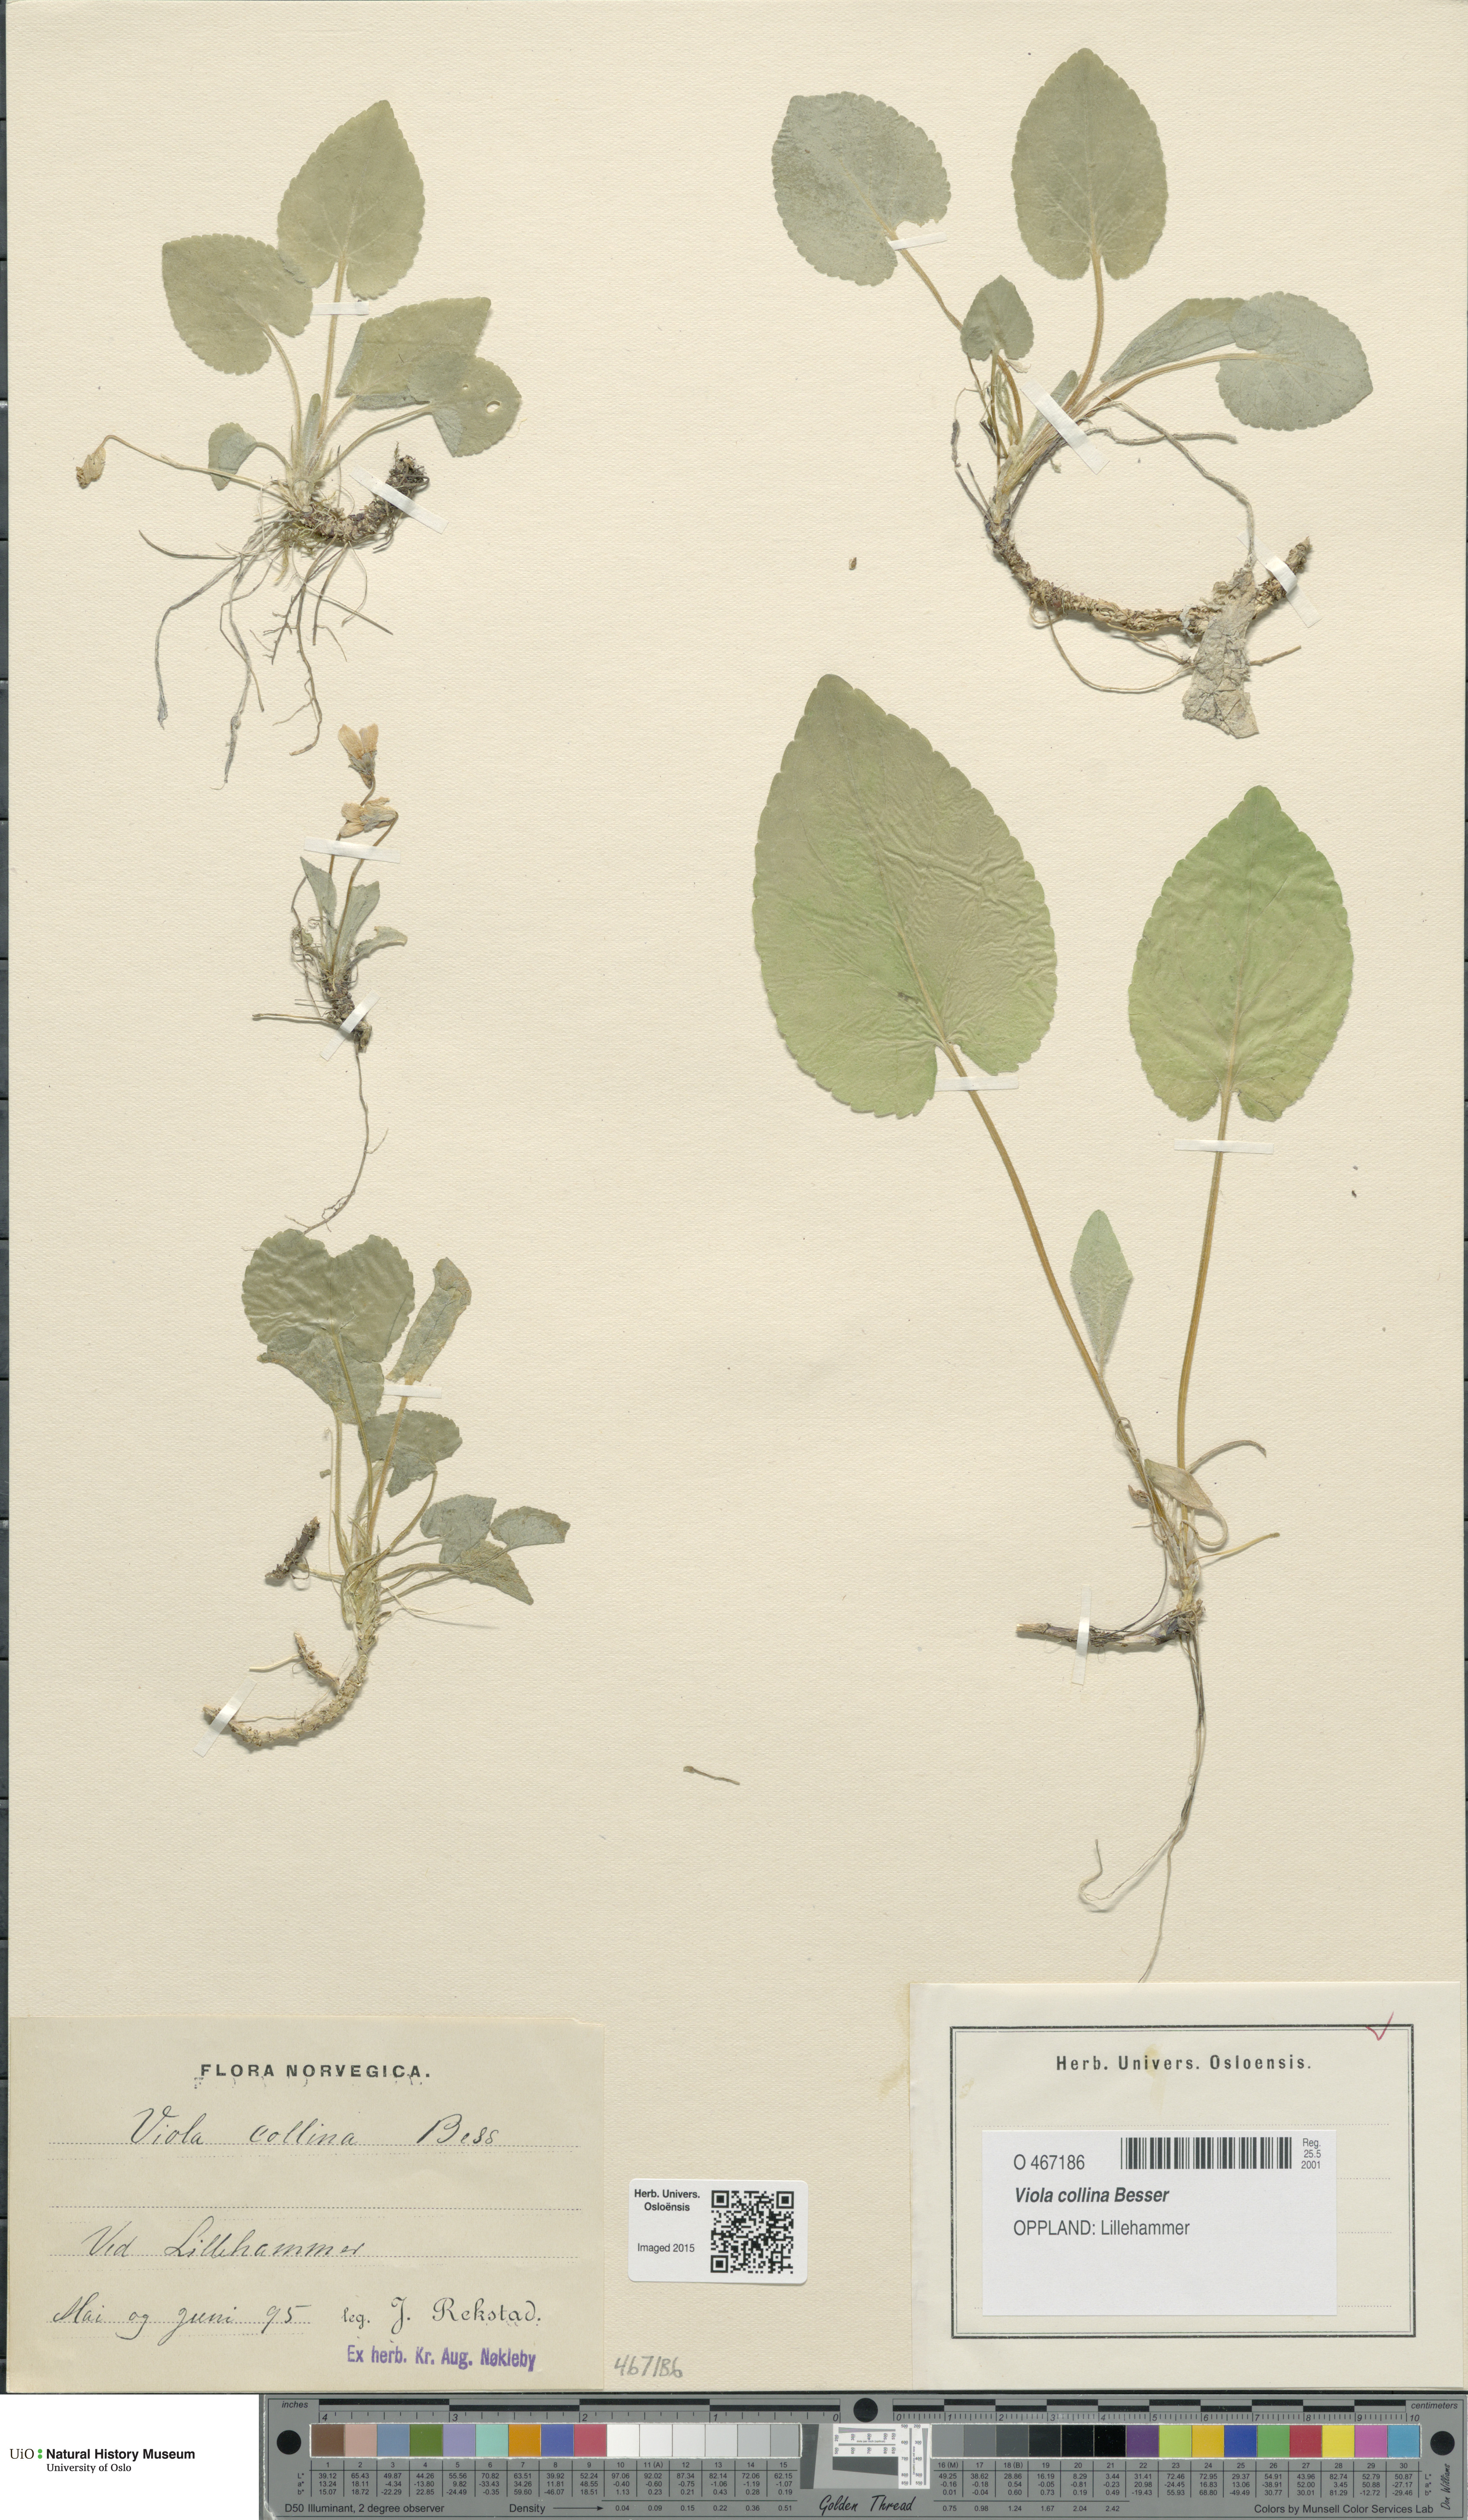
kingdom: Plantae
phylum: Tracheophyta
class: Magnoliopsida
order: Malpighiales
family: Violaceae
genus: Viola
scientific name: Viola collina
